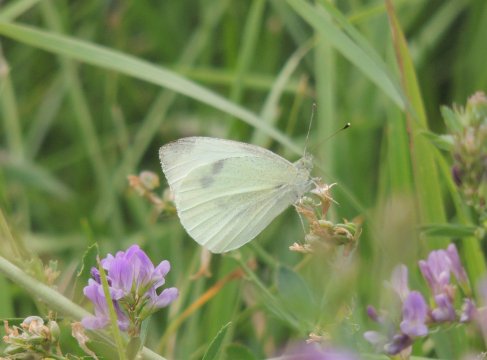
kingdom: Animalia
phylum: Arthropoda
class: Insecta
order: Lepidoptera
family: Pieridae
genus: Pieris
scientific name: Pieris rapae
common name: Cabbage White
